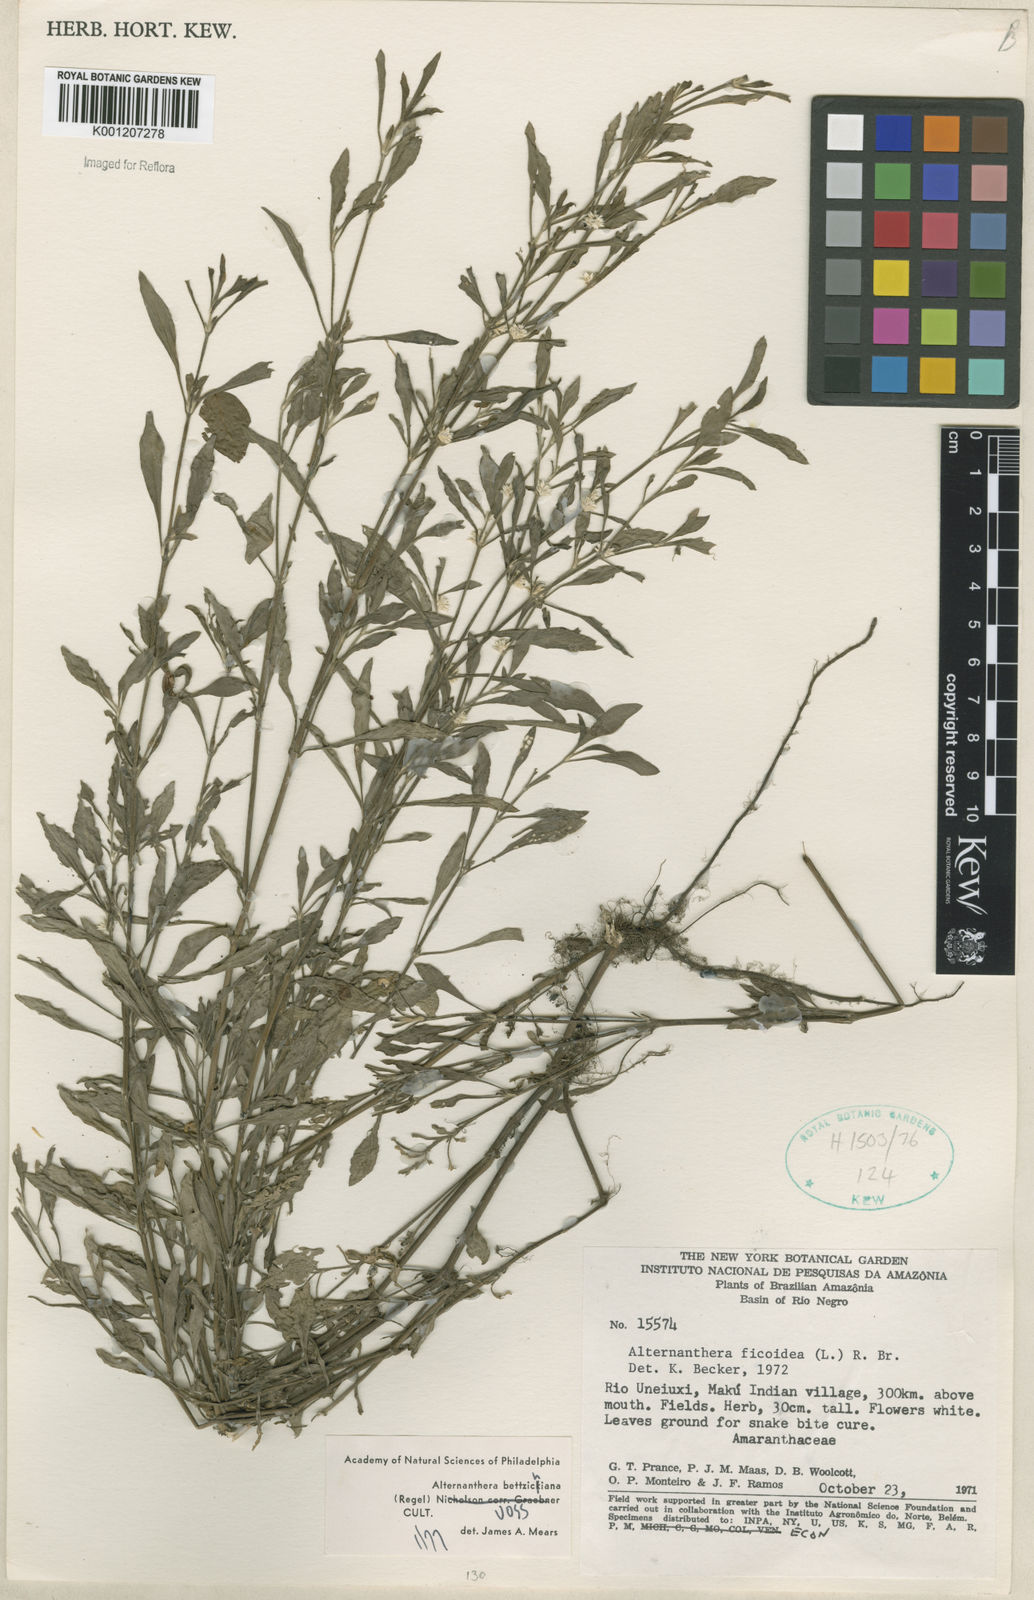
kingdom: Plantae
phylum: Tracheophyta
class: Magnoliopsida
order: Caryophyllales
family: Amaranthaceae
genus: Alternanthera
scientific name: Alternanthera bettzickiana
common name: Calico-plant
